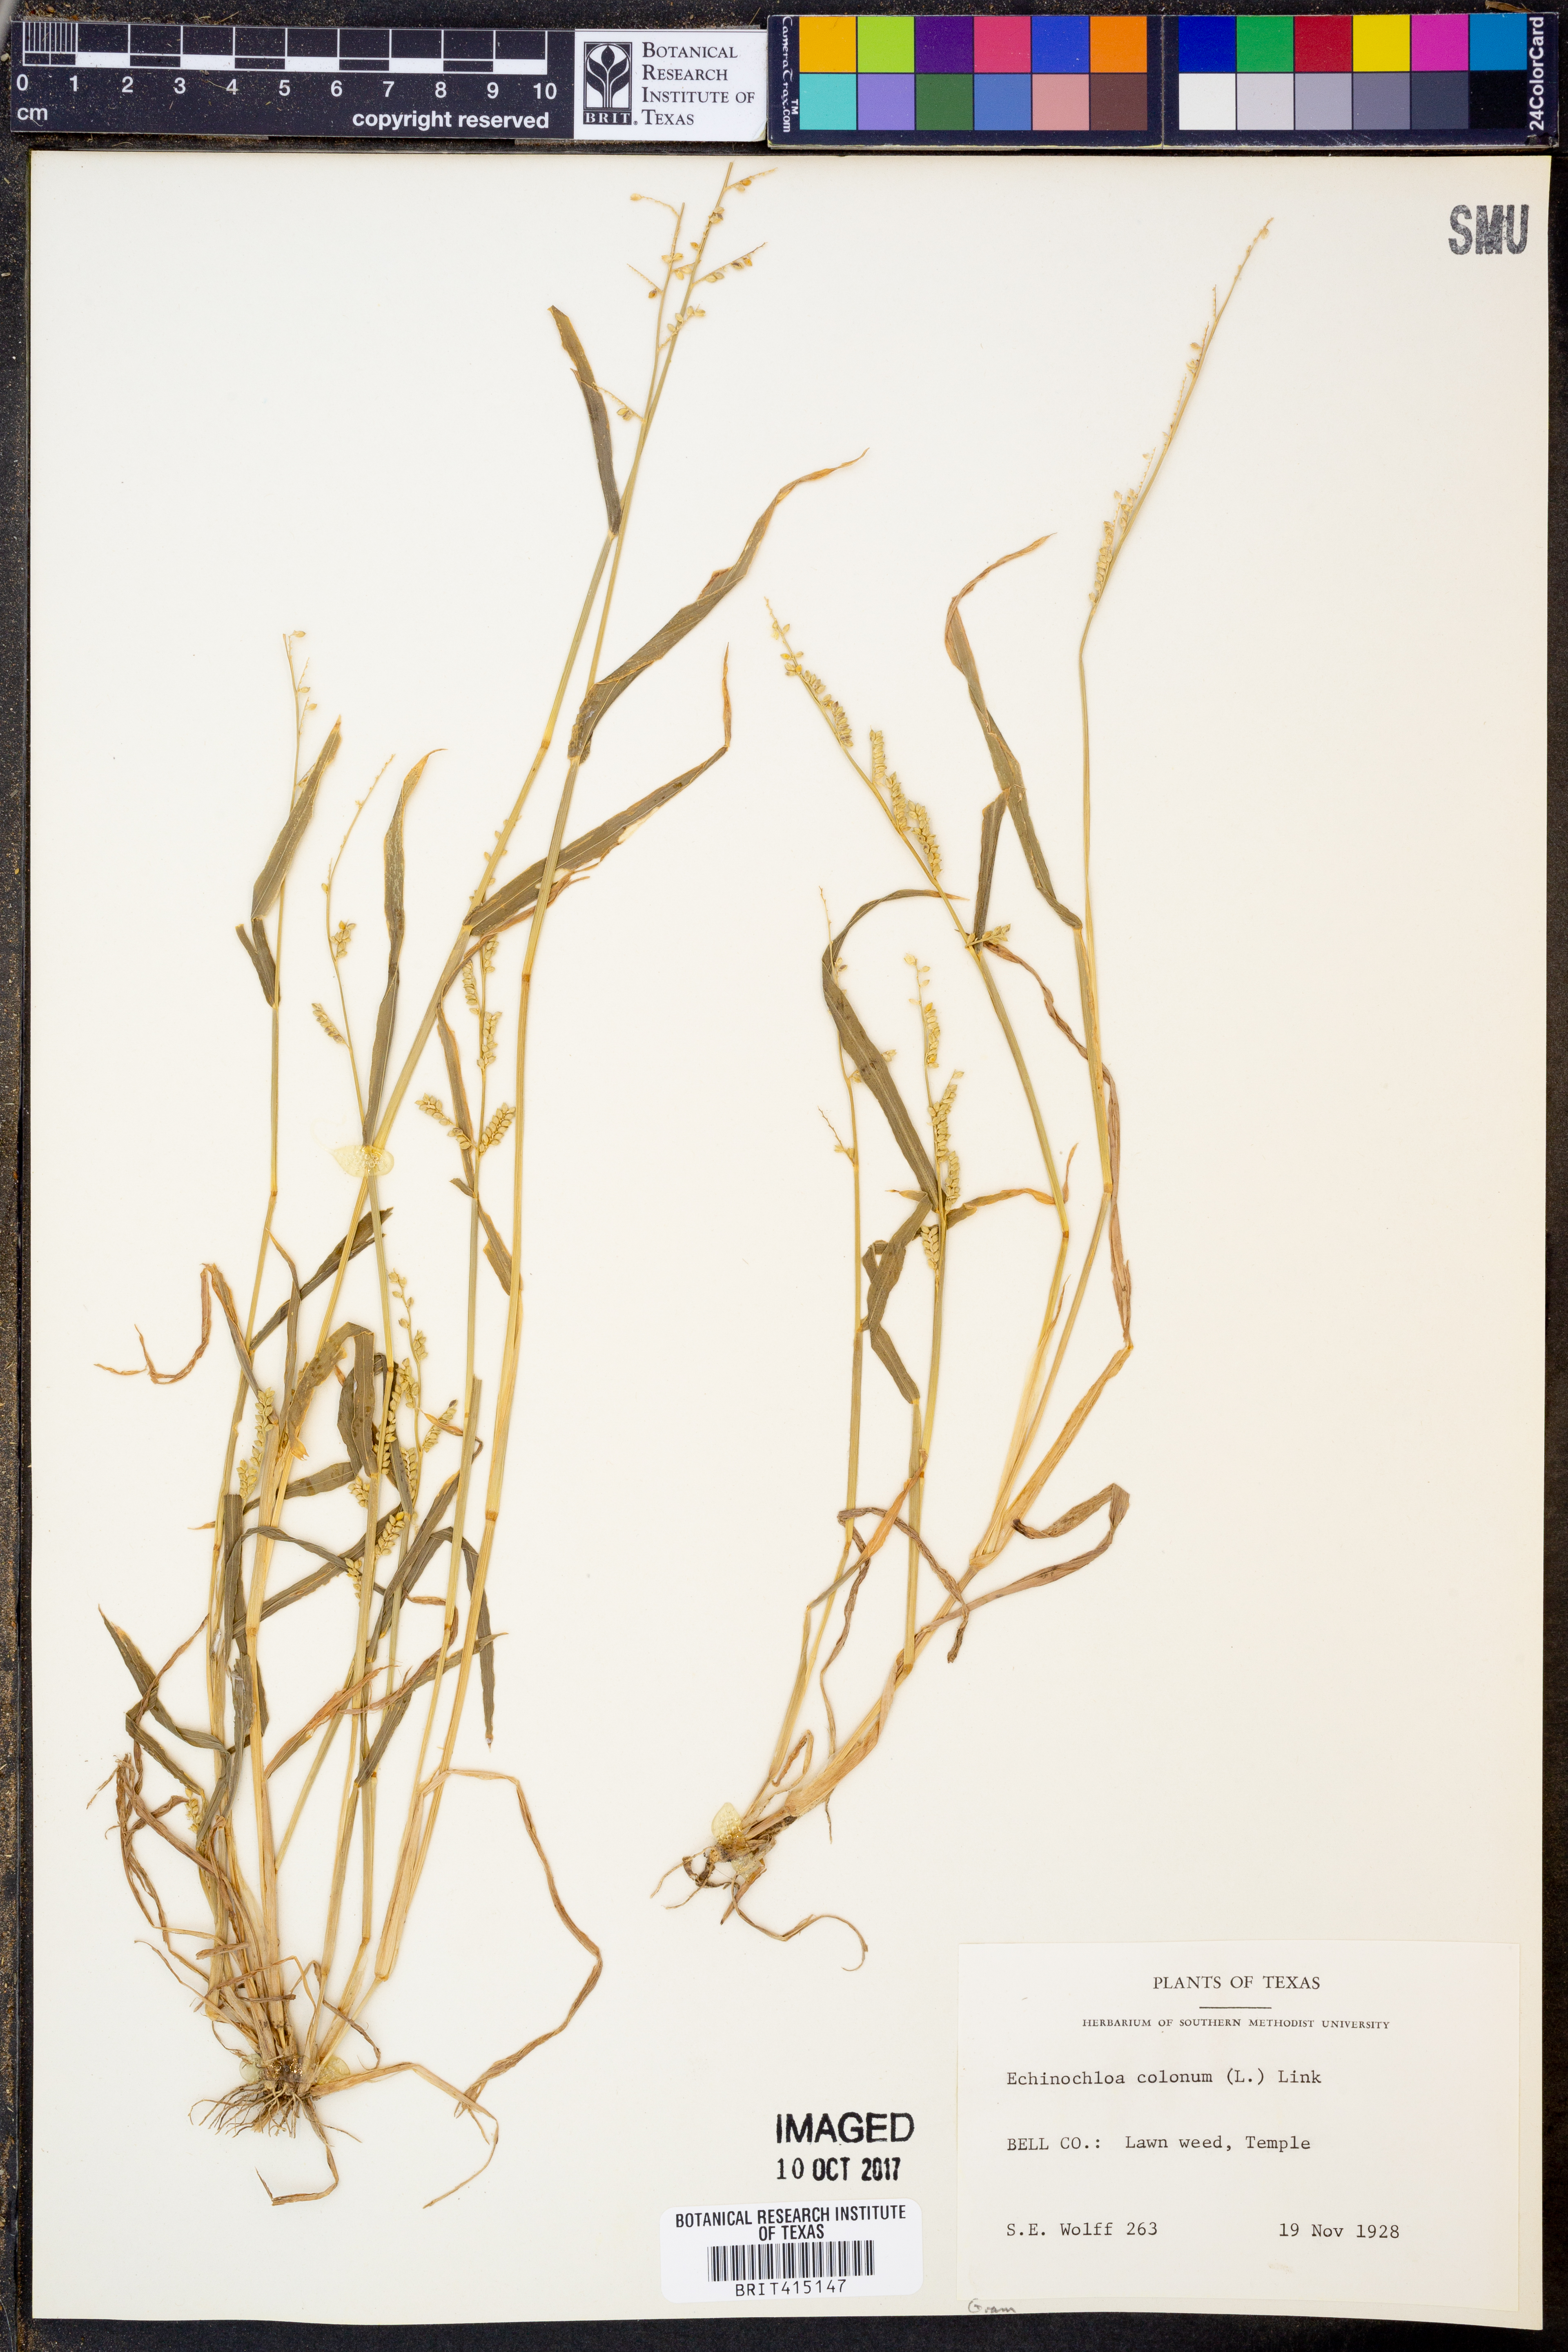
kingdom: Plantae
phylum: Tracheophyta
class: Liliopsida
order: Poales
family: Poaceae
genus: Echinochloa
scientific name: Echinochloa colonum
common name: Jungle rice
